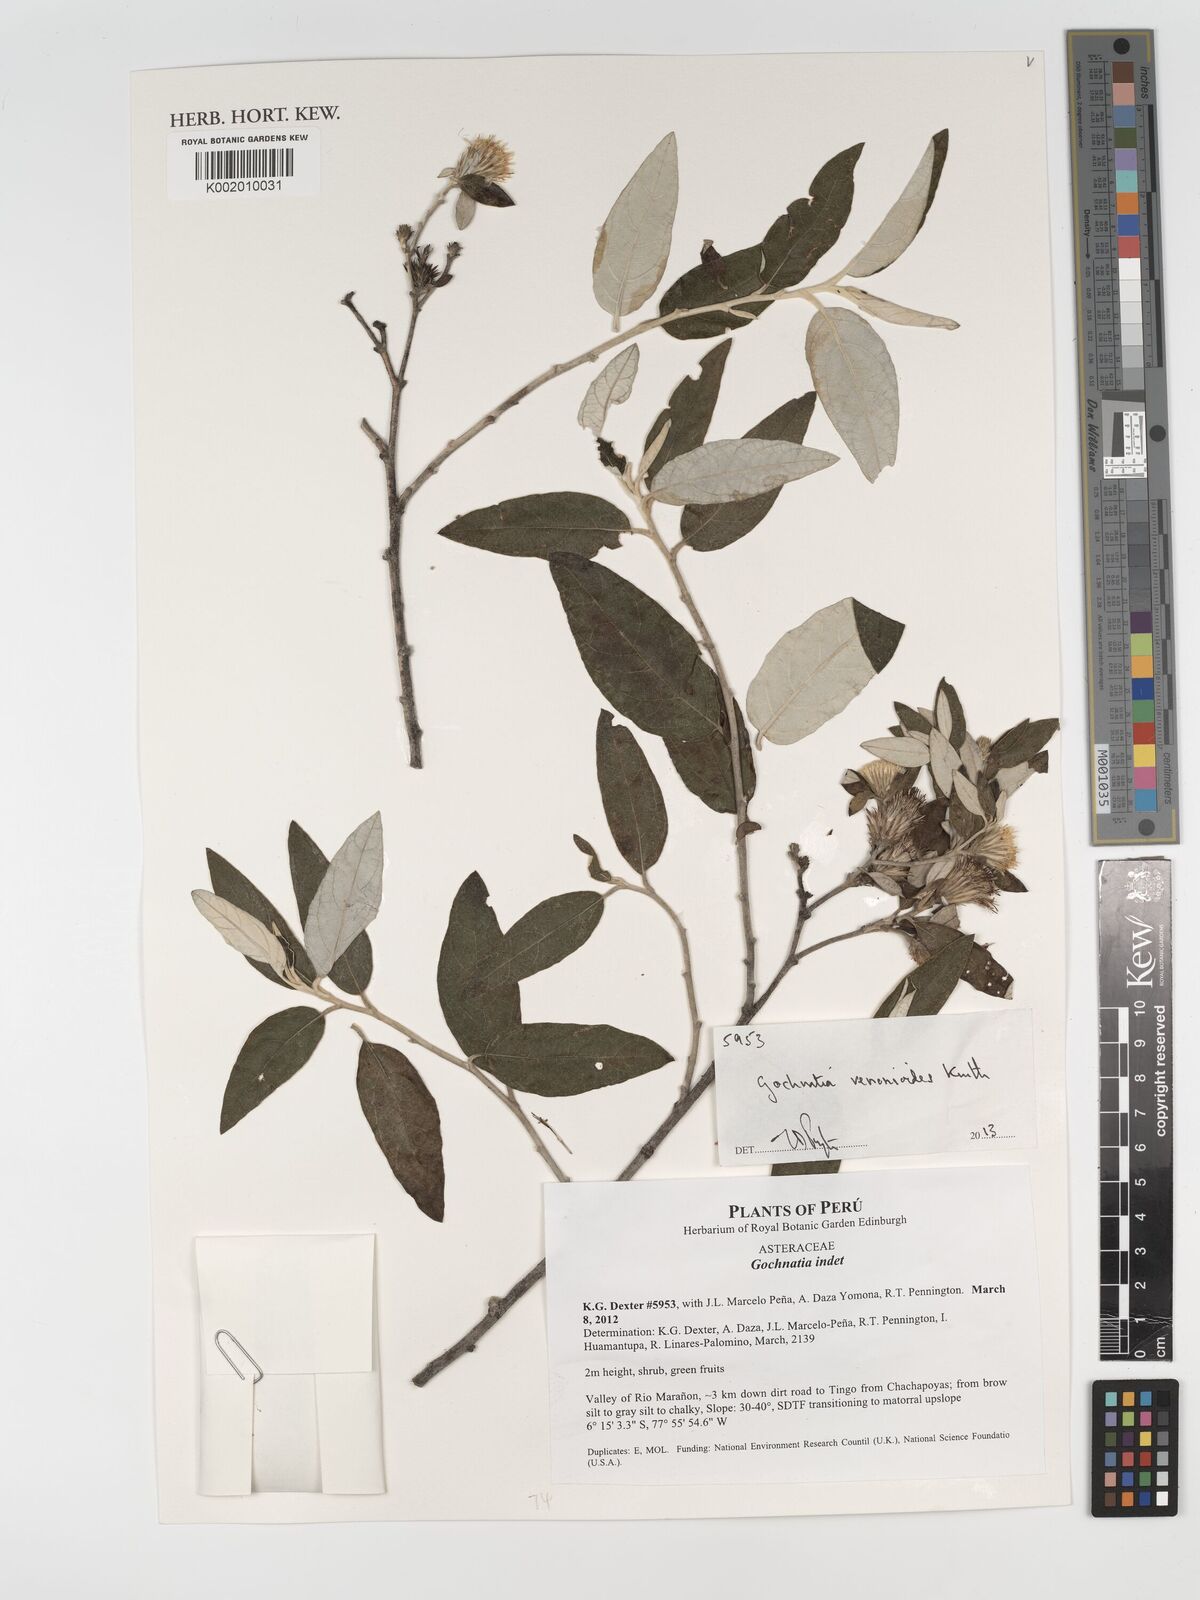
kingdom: Plantae
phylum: Tracheophyta
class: Magnoliopsida
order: Asterales
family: Asteraceae
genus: Gochnatia
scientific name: Gochnatia vernonioides
